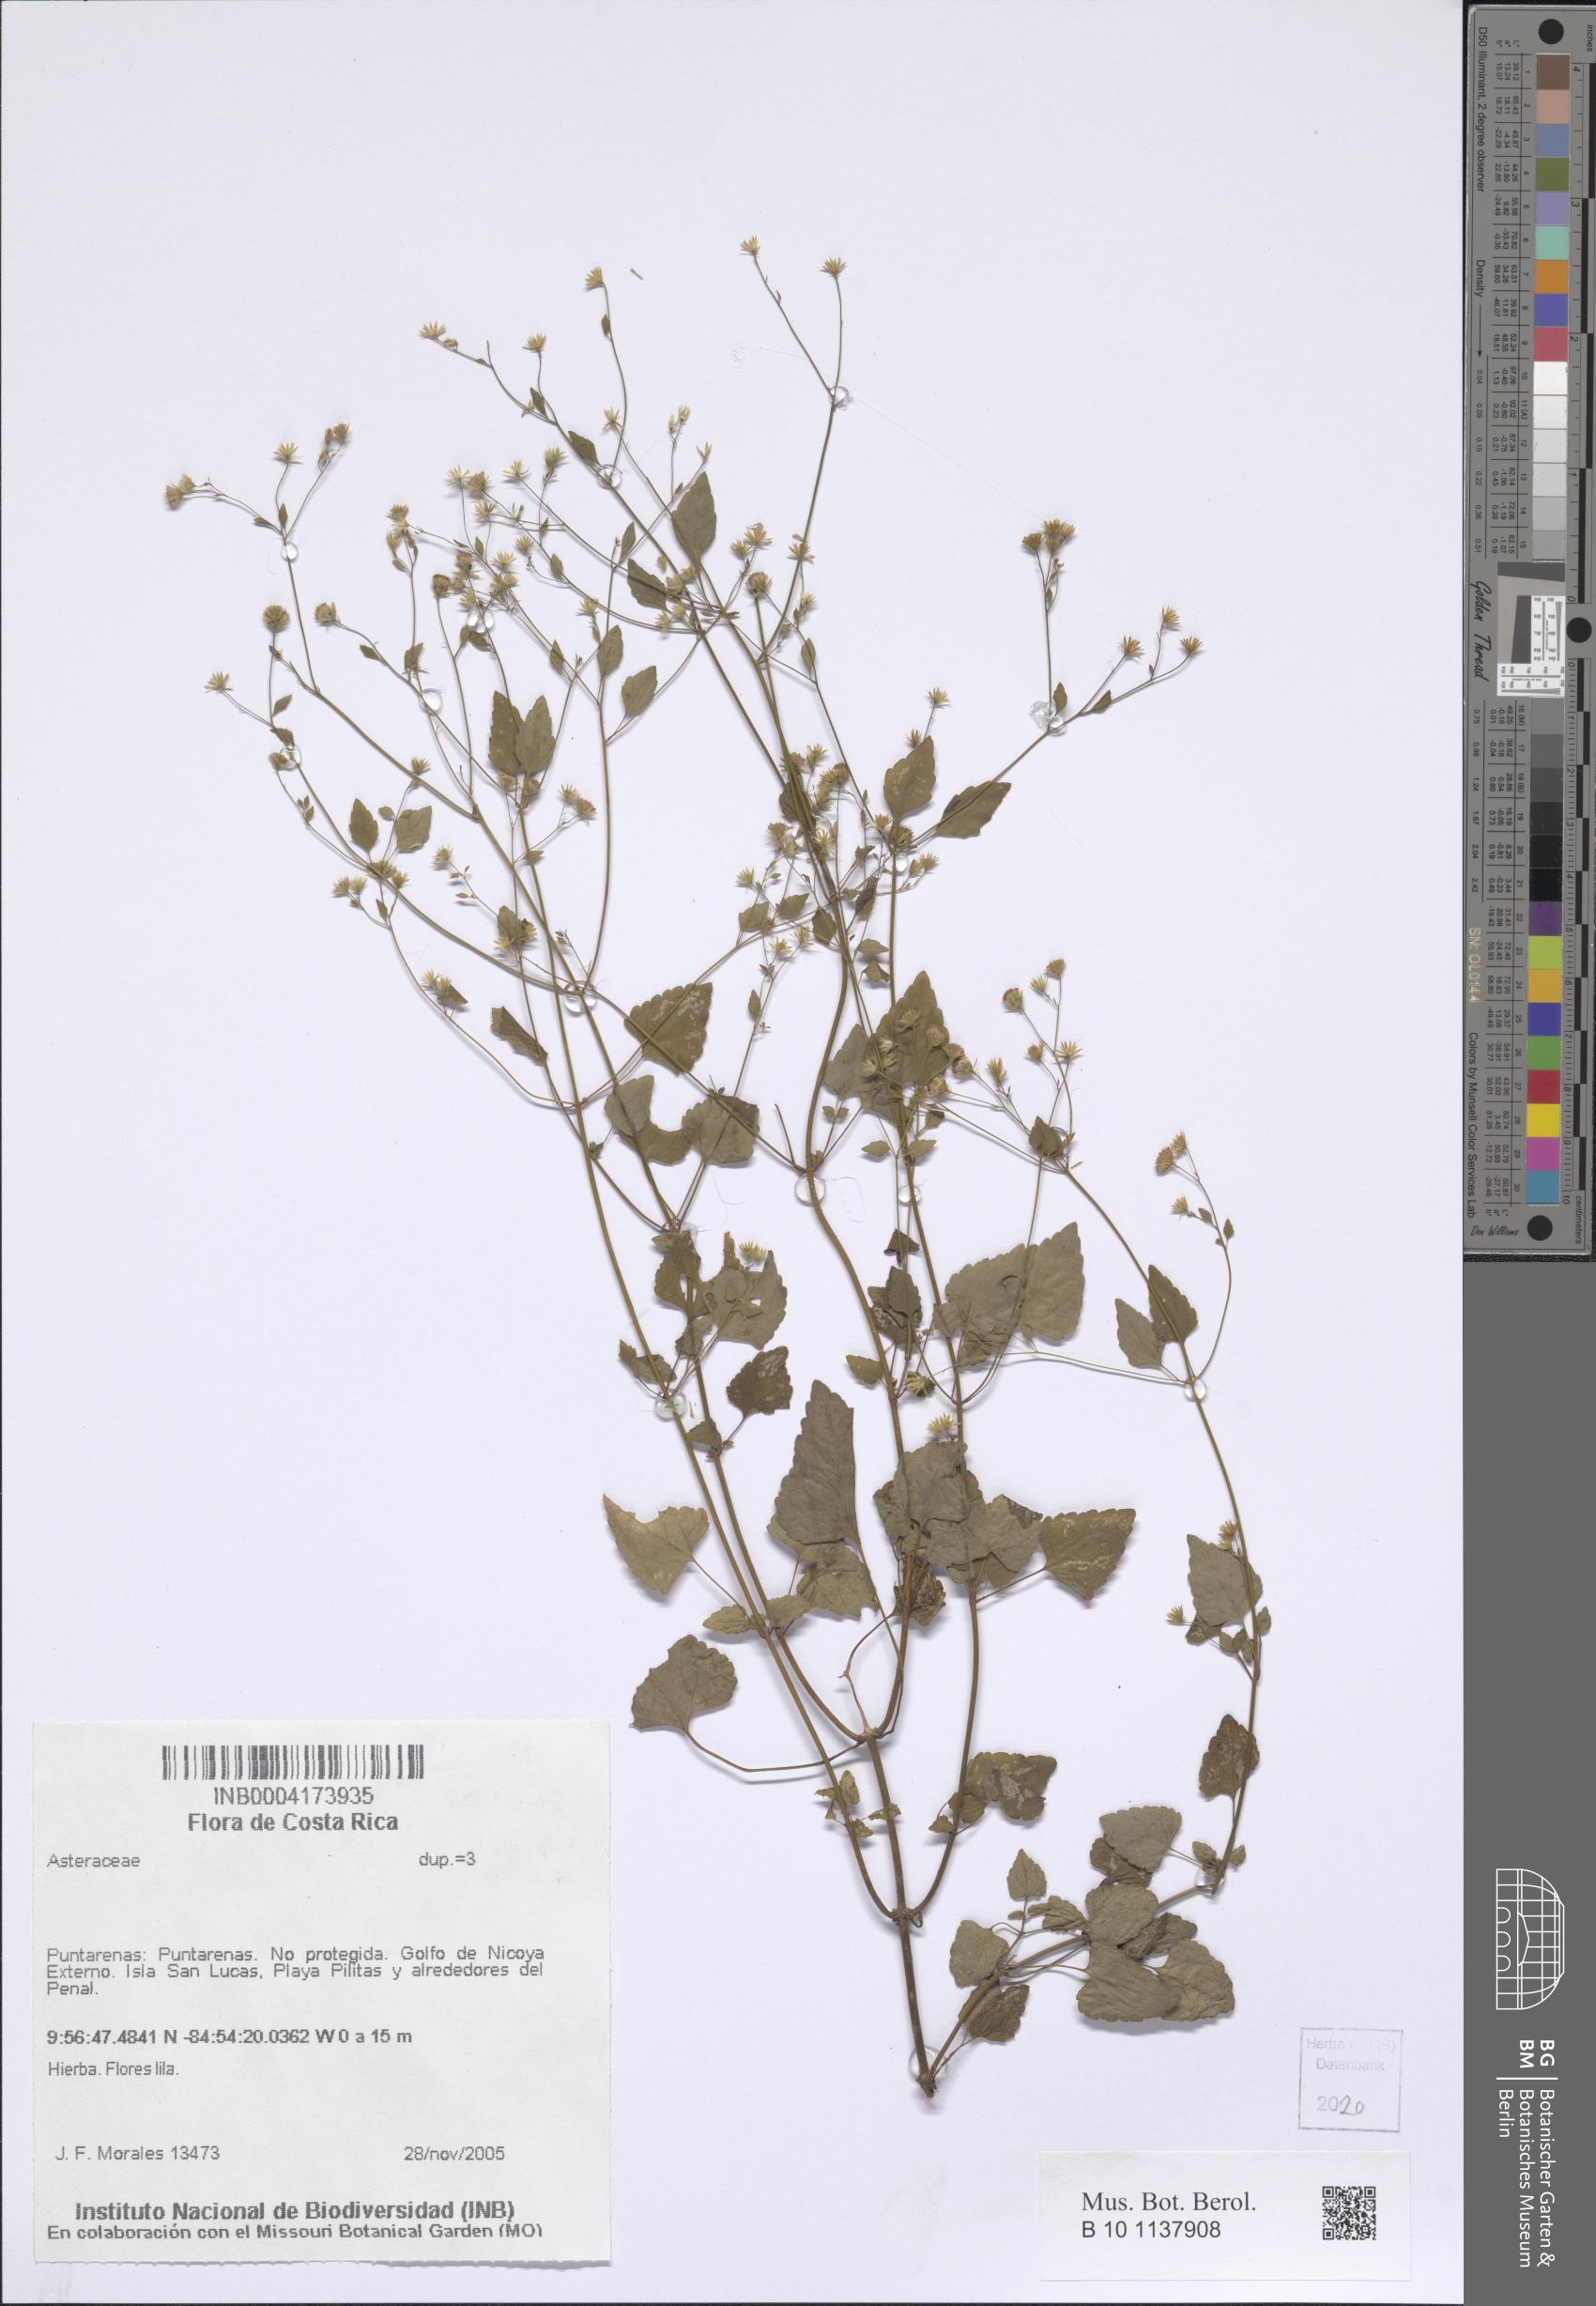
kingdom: Plantae
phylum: Tracheophyta
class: Magnoliopsida
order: Asterales
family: Asteraceae
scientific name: Asteraceae
